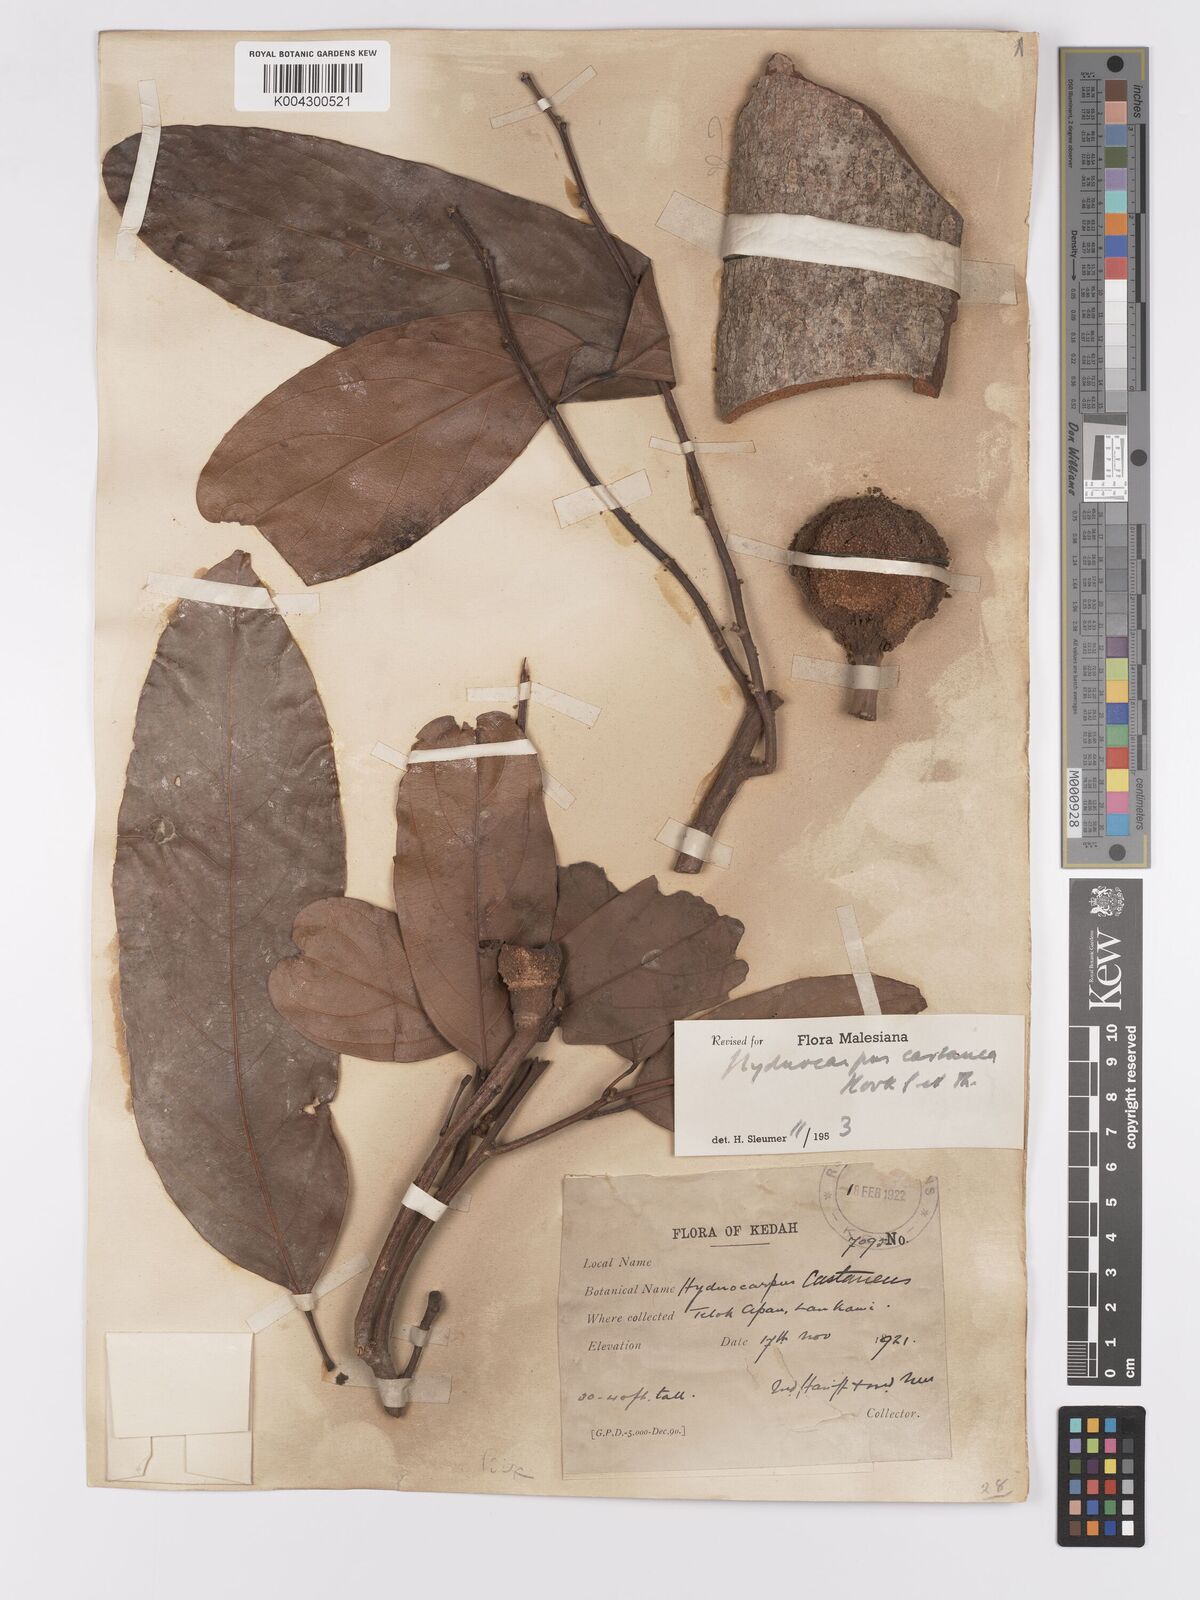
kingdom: Plantae
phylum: Tracheophyta
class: Magnoliopsida
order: Malpighiales
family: Achariaceae
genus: Hydnocarpus
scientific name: Hydnocarpus castaneus
